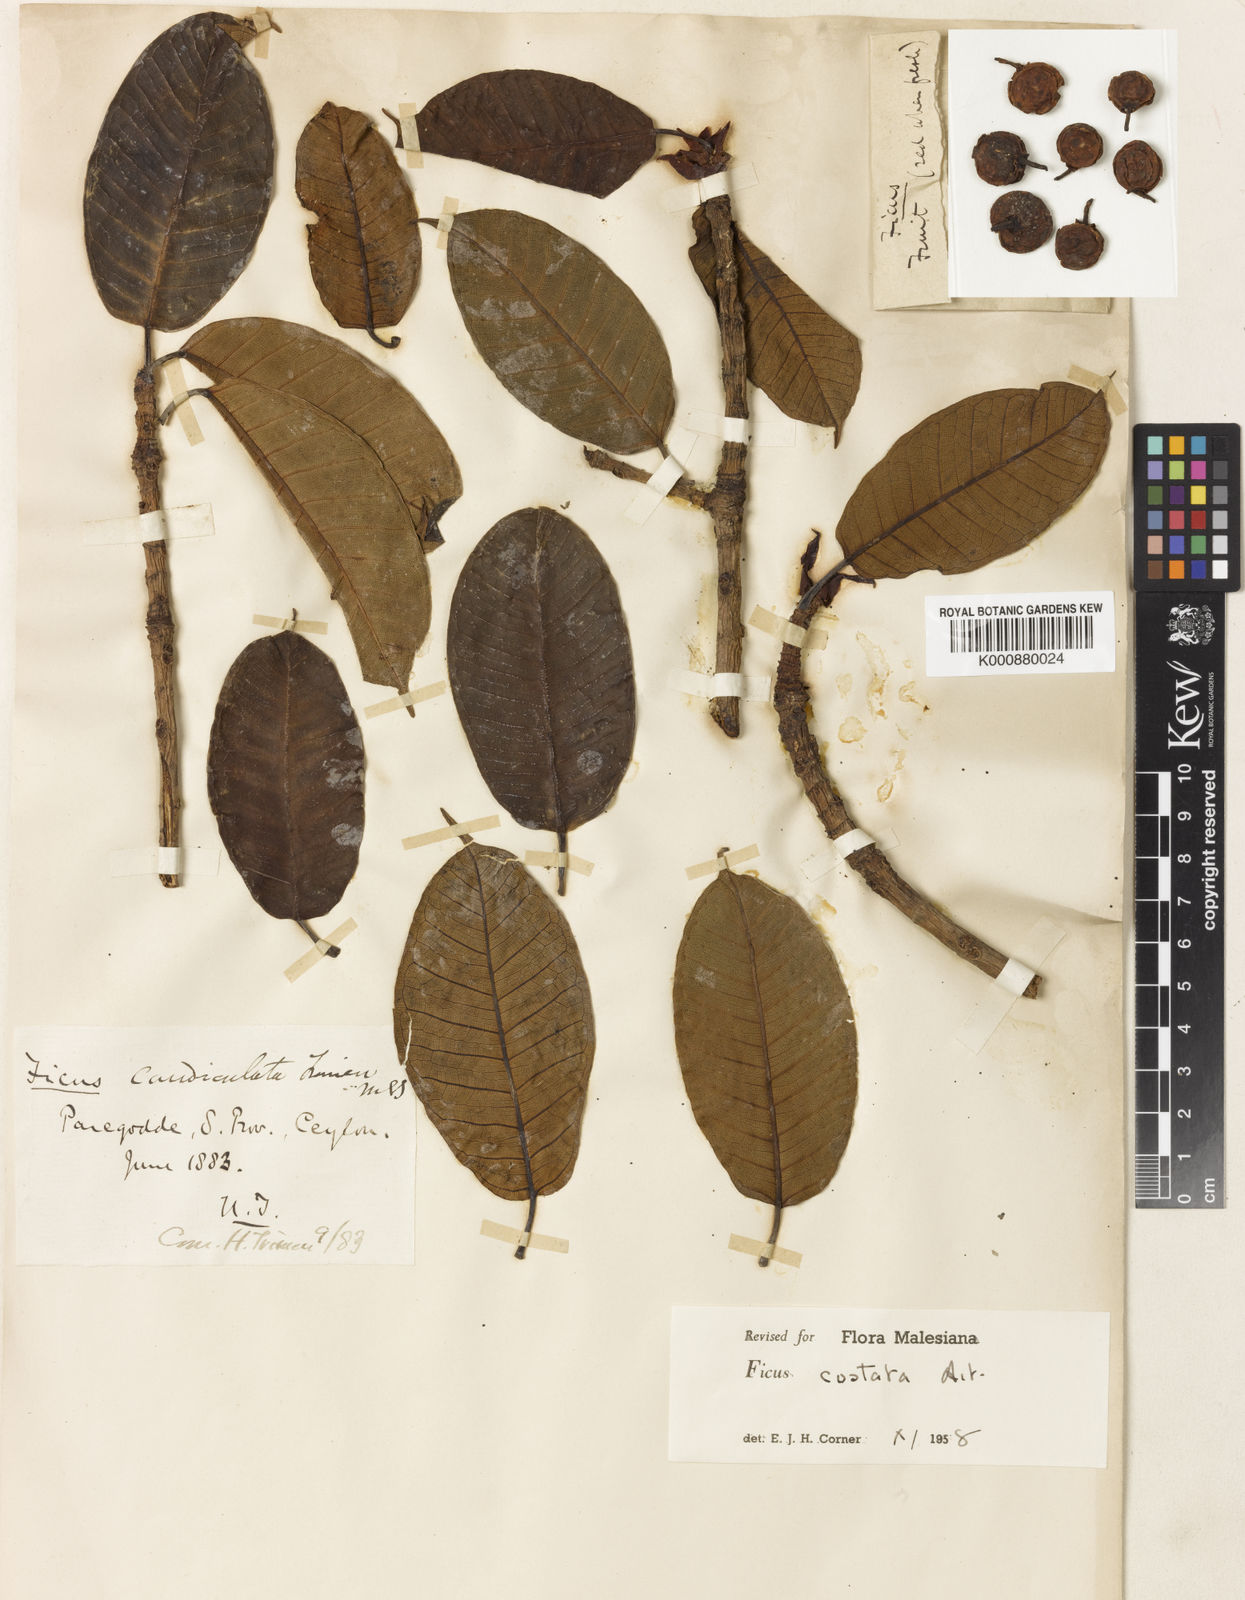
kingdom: Plantae
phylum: Tracheophyta
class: Magnoliopsida
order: Rosales
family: Moraceae
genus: Ficus
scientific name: Ficus costata
